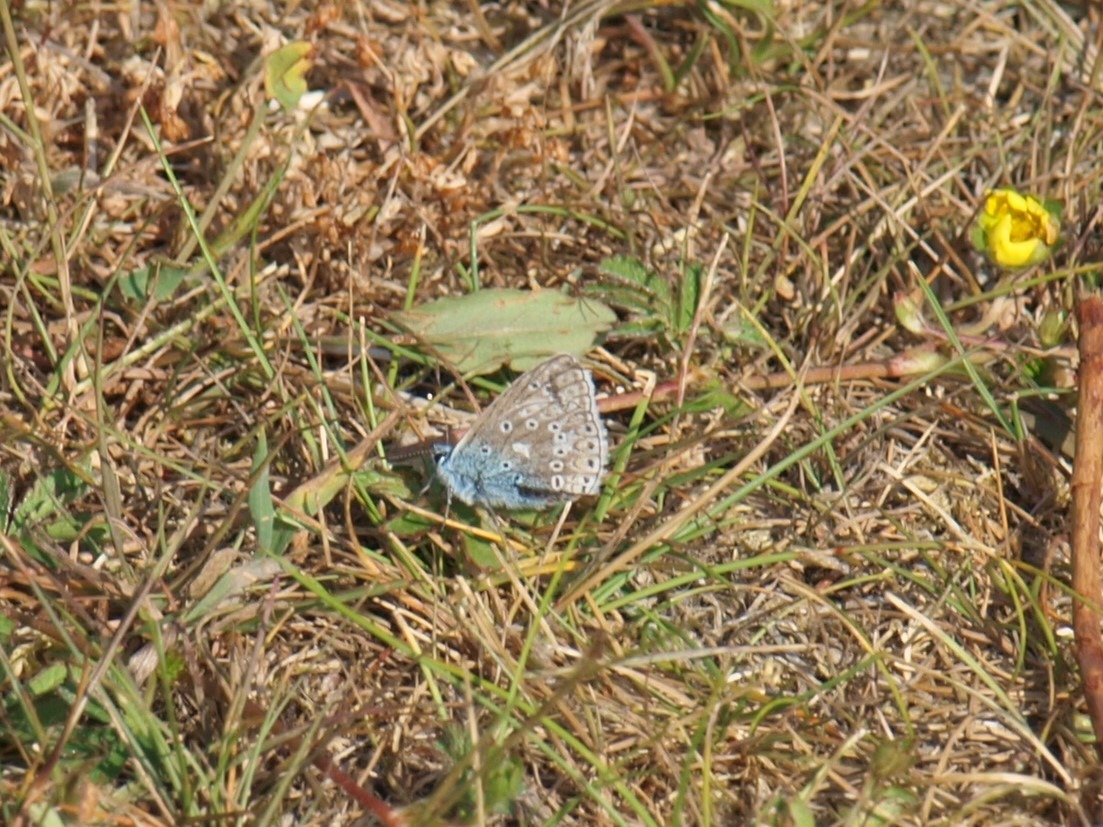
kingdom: Animalia
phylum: Arthropoda
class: Insecta
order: Lepidoptera
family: Lycaenidae
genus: Polyommatus
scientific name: Polyommatus icarus
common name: Almindelig blåfugl
